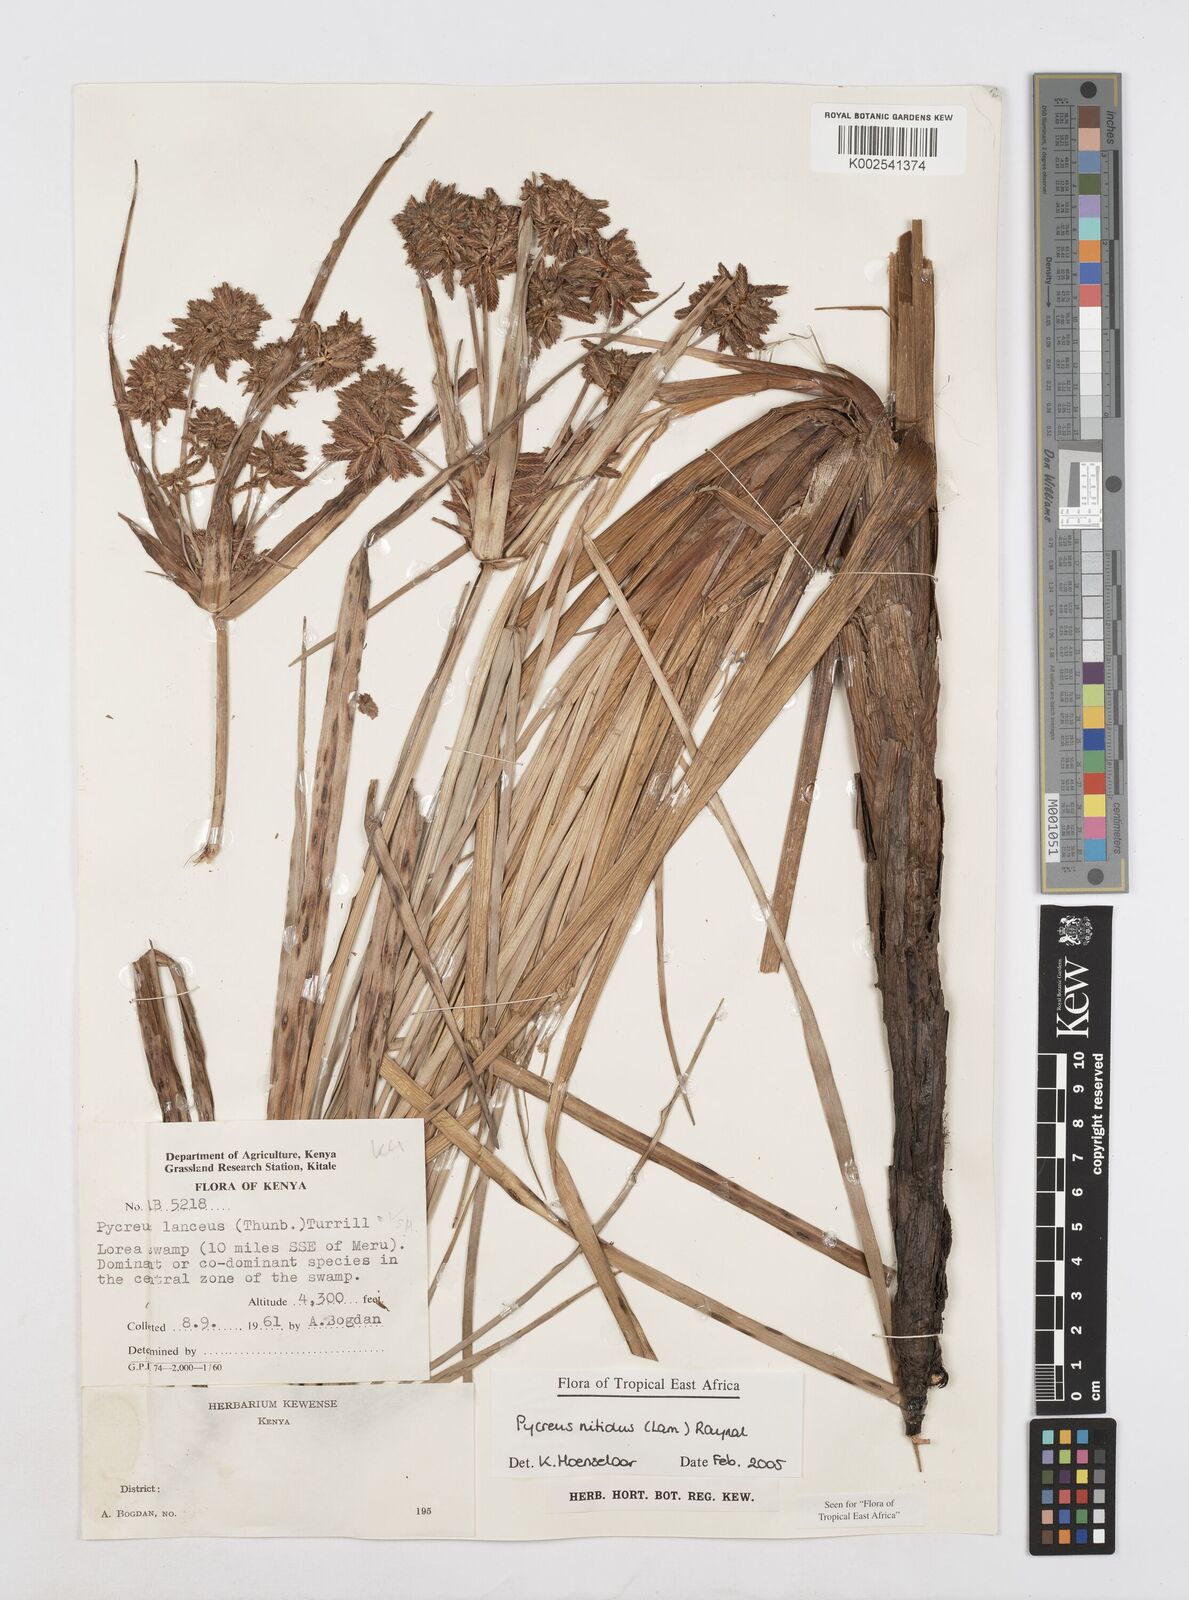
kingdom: Plantae
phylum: Tracheophyta
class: Liliopsida
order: Poales
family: Cyperaceae
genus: Cyperus
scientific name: Cyperus nitidus
